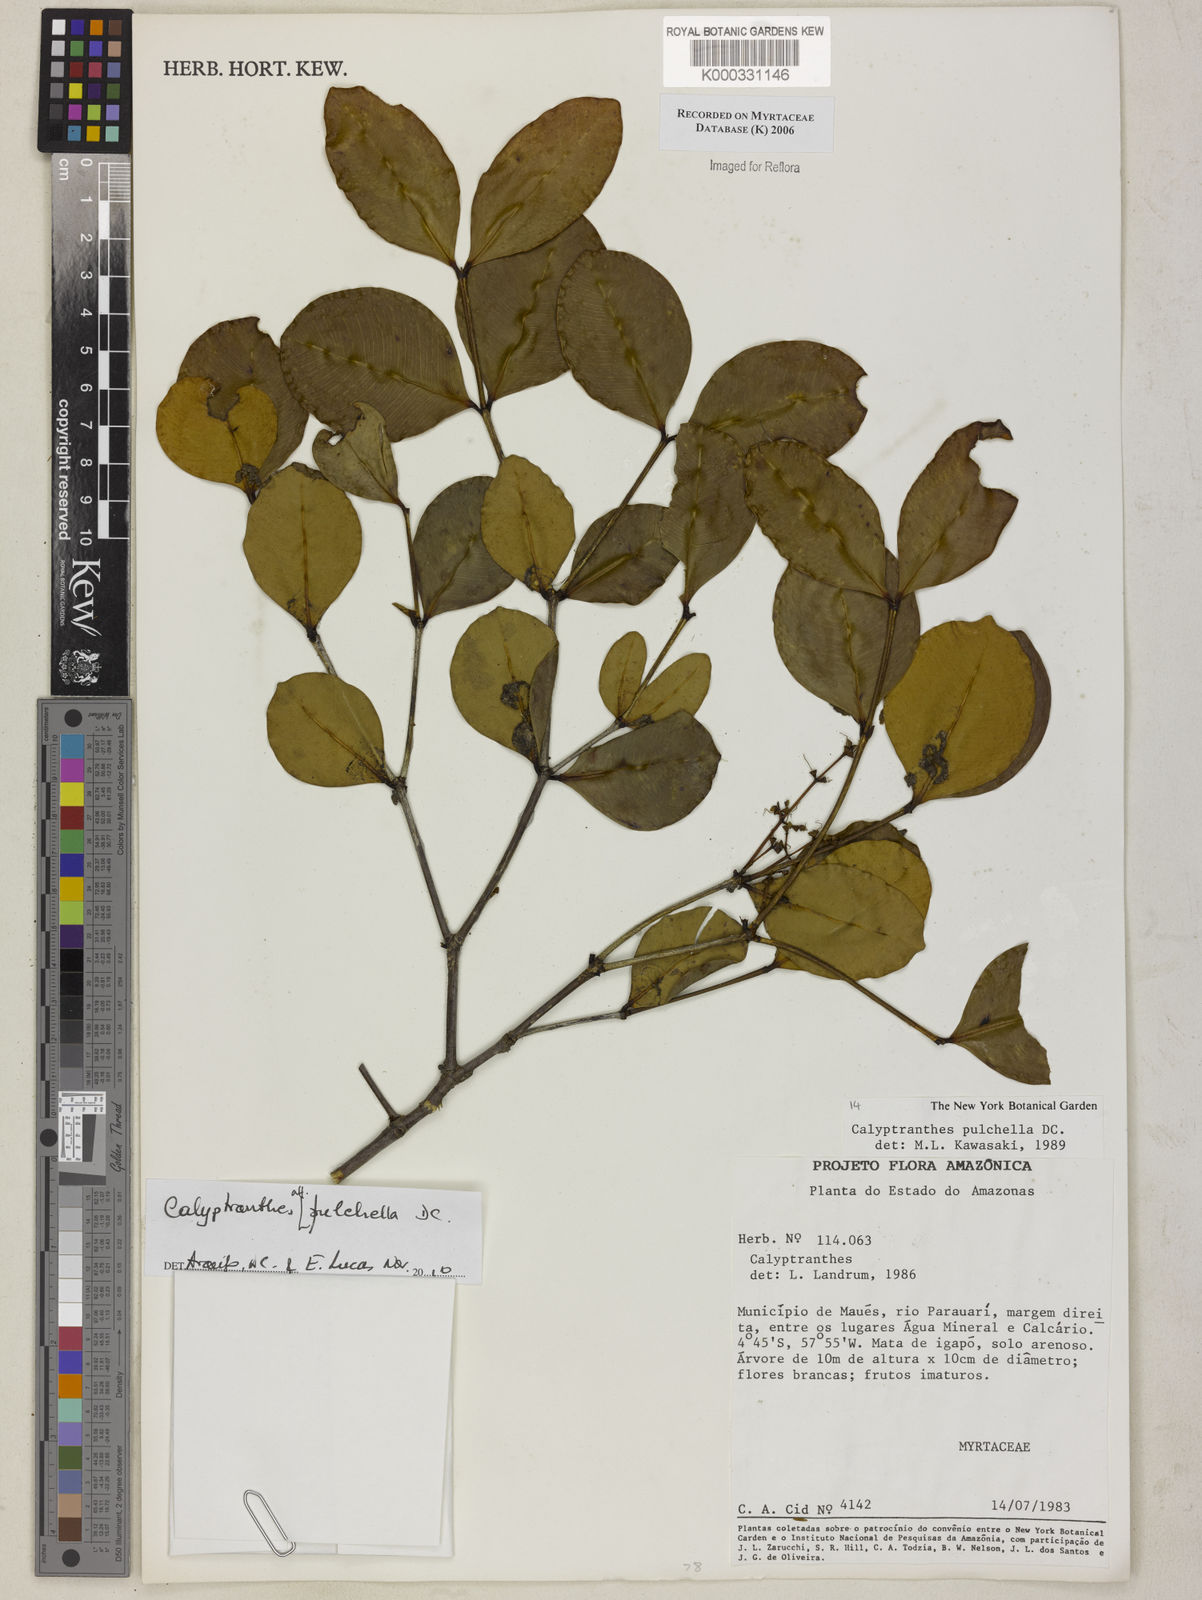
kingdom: Plantae
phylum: Tracheophyta
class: Magnoliopsida
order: Myrtales
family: Myrtaceae
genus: Myrcia
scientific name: Myrcia pulchella
